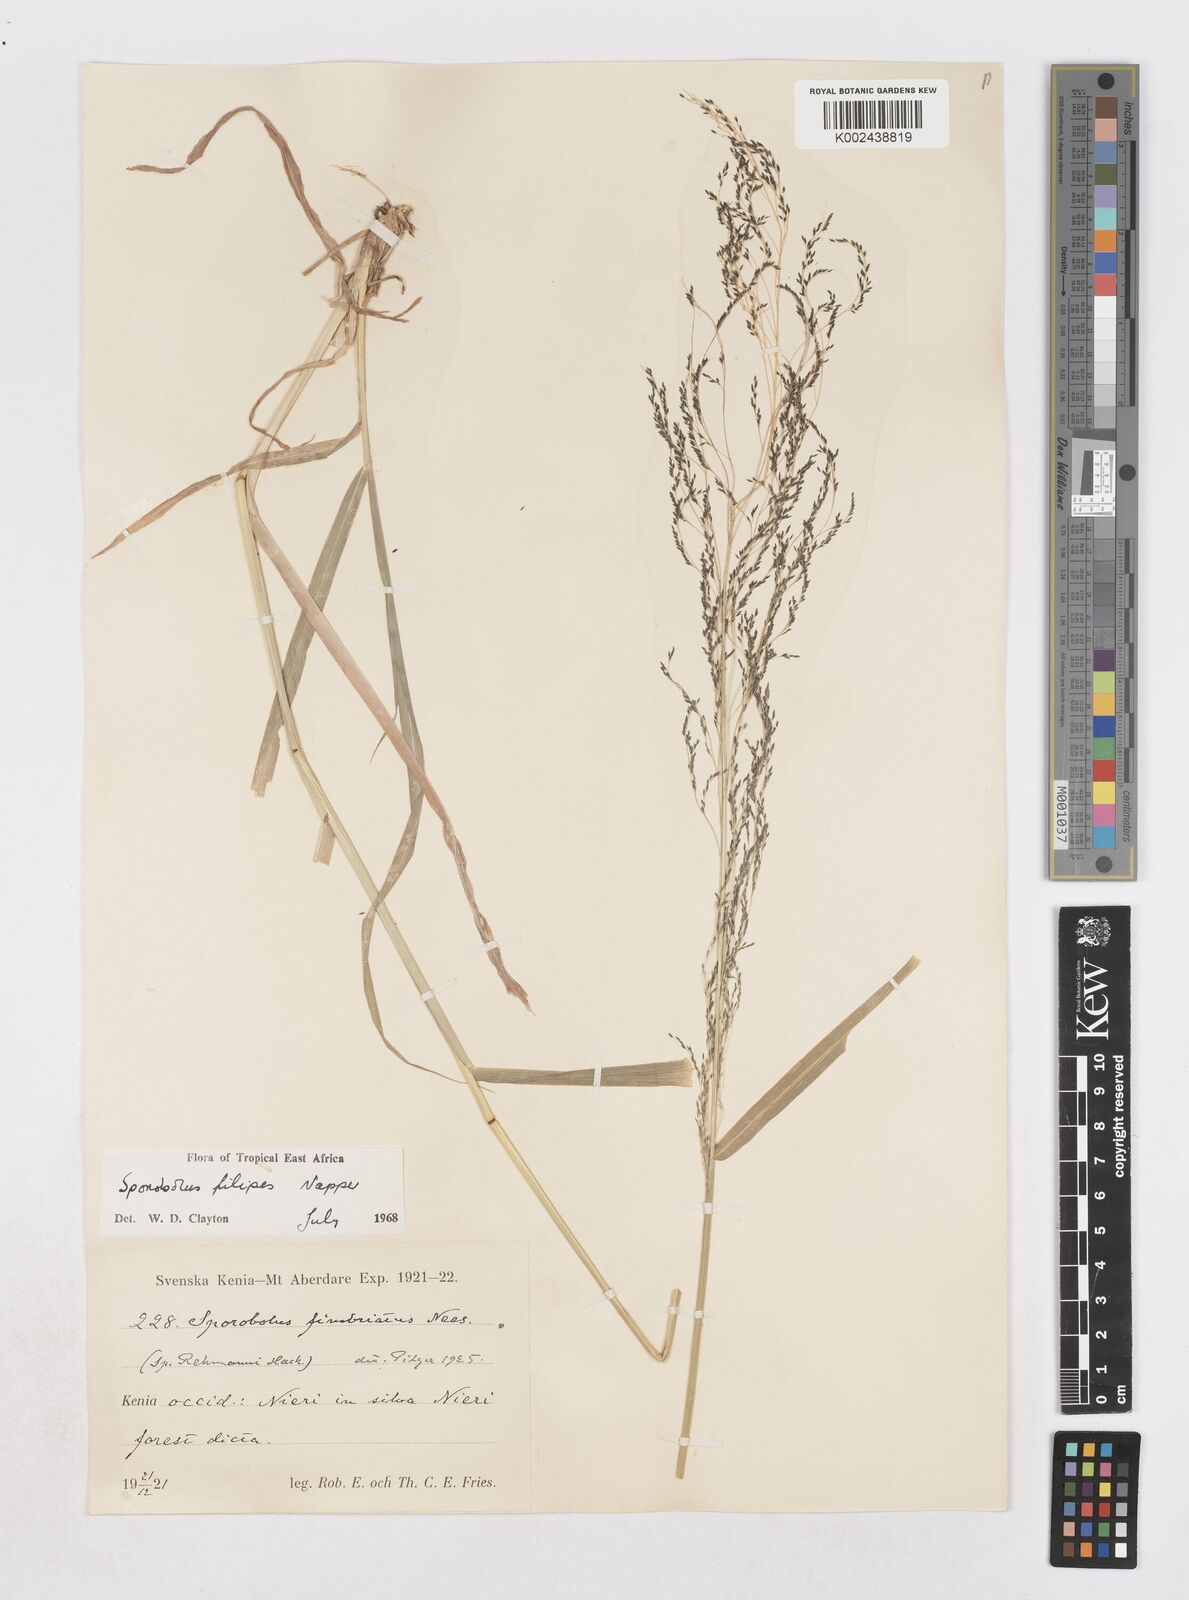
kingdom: Plantae
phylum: Tracheophyta
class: Liliopsida
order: Poales
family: Poaceae
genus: Sporobolus
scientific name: Sporobolus agrostoides
